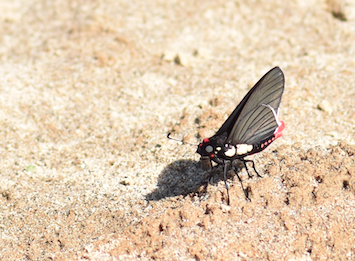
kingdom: Animalia
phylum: Arthropoda
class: Insecta
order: Lepidoptera
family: Hesperiidae
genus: Mysoria
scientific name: Mysoria thasus
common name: Black-veined Firetip
